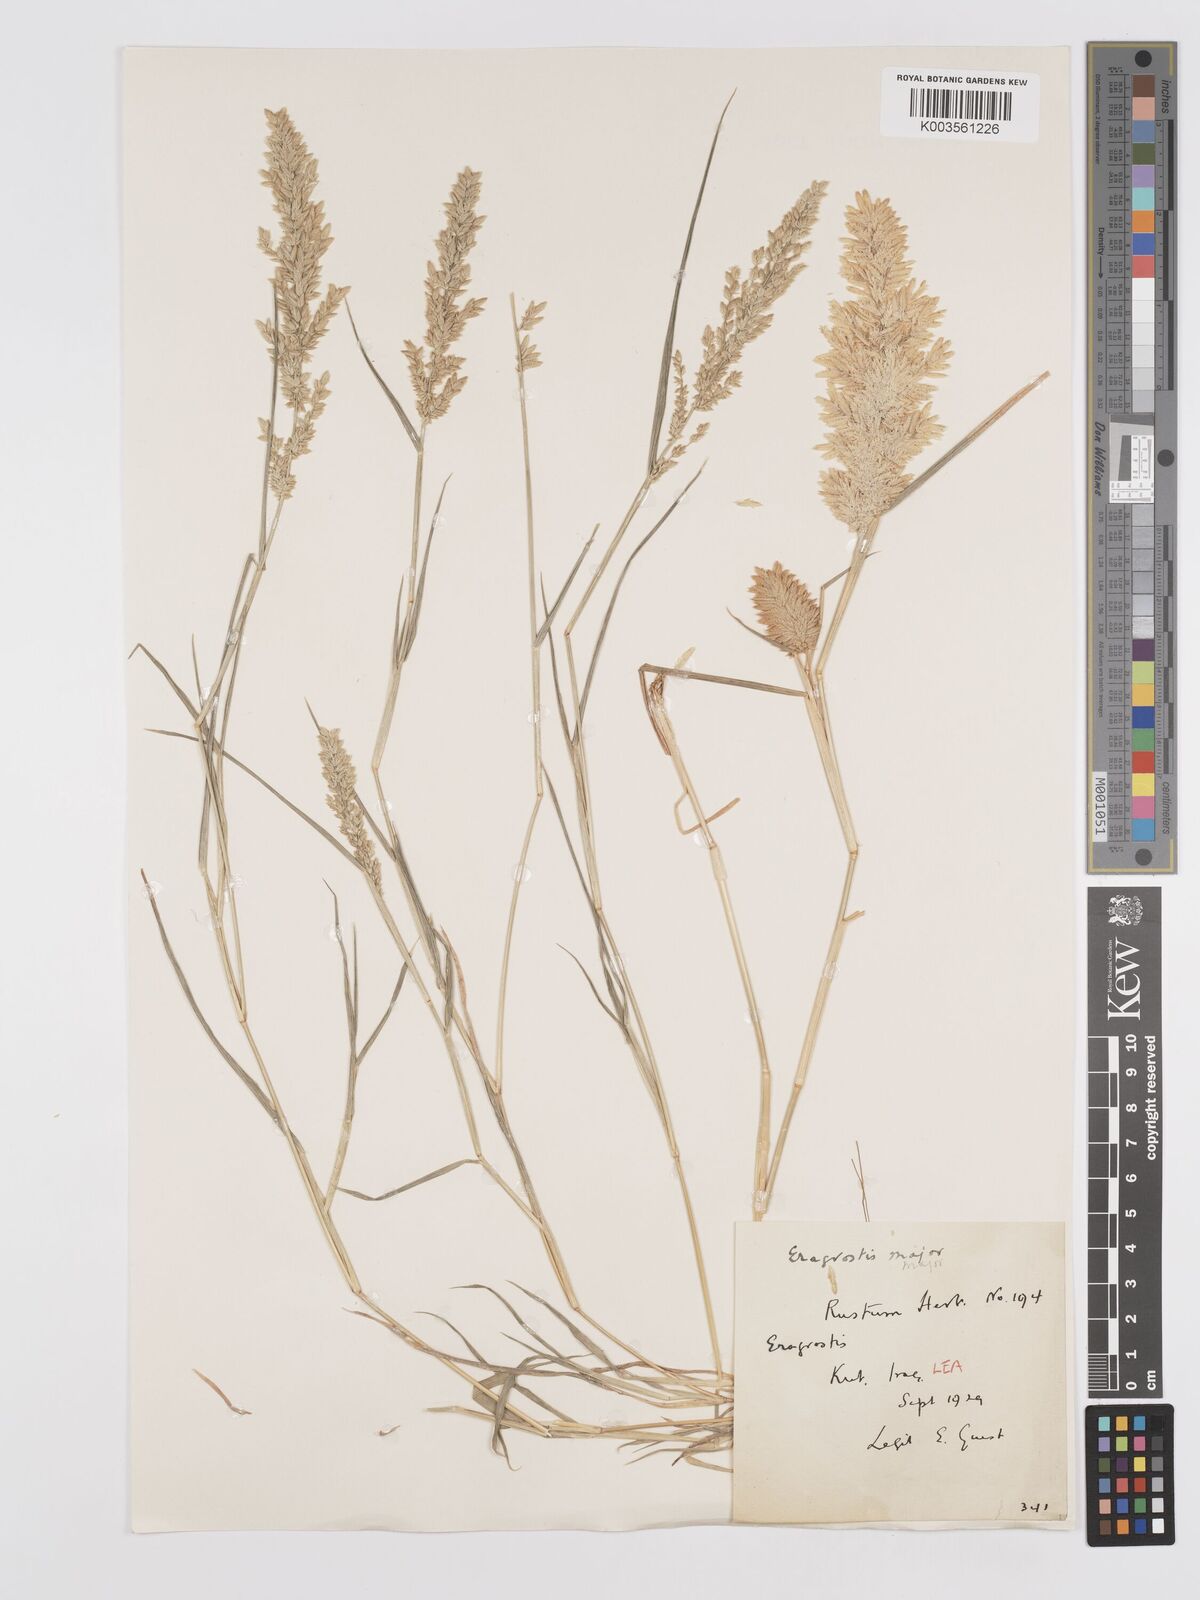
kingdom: Plantae
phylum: Tracheophyta
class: Liliopsida
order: Poales
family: Poaceae
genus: Eragrostis
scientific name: Eragrostis cilianensis
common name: Stinkgrass
